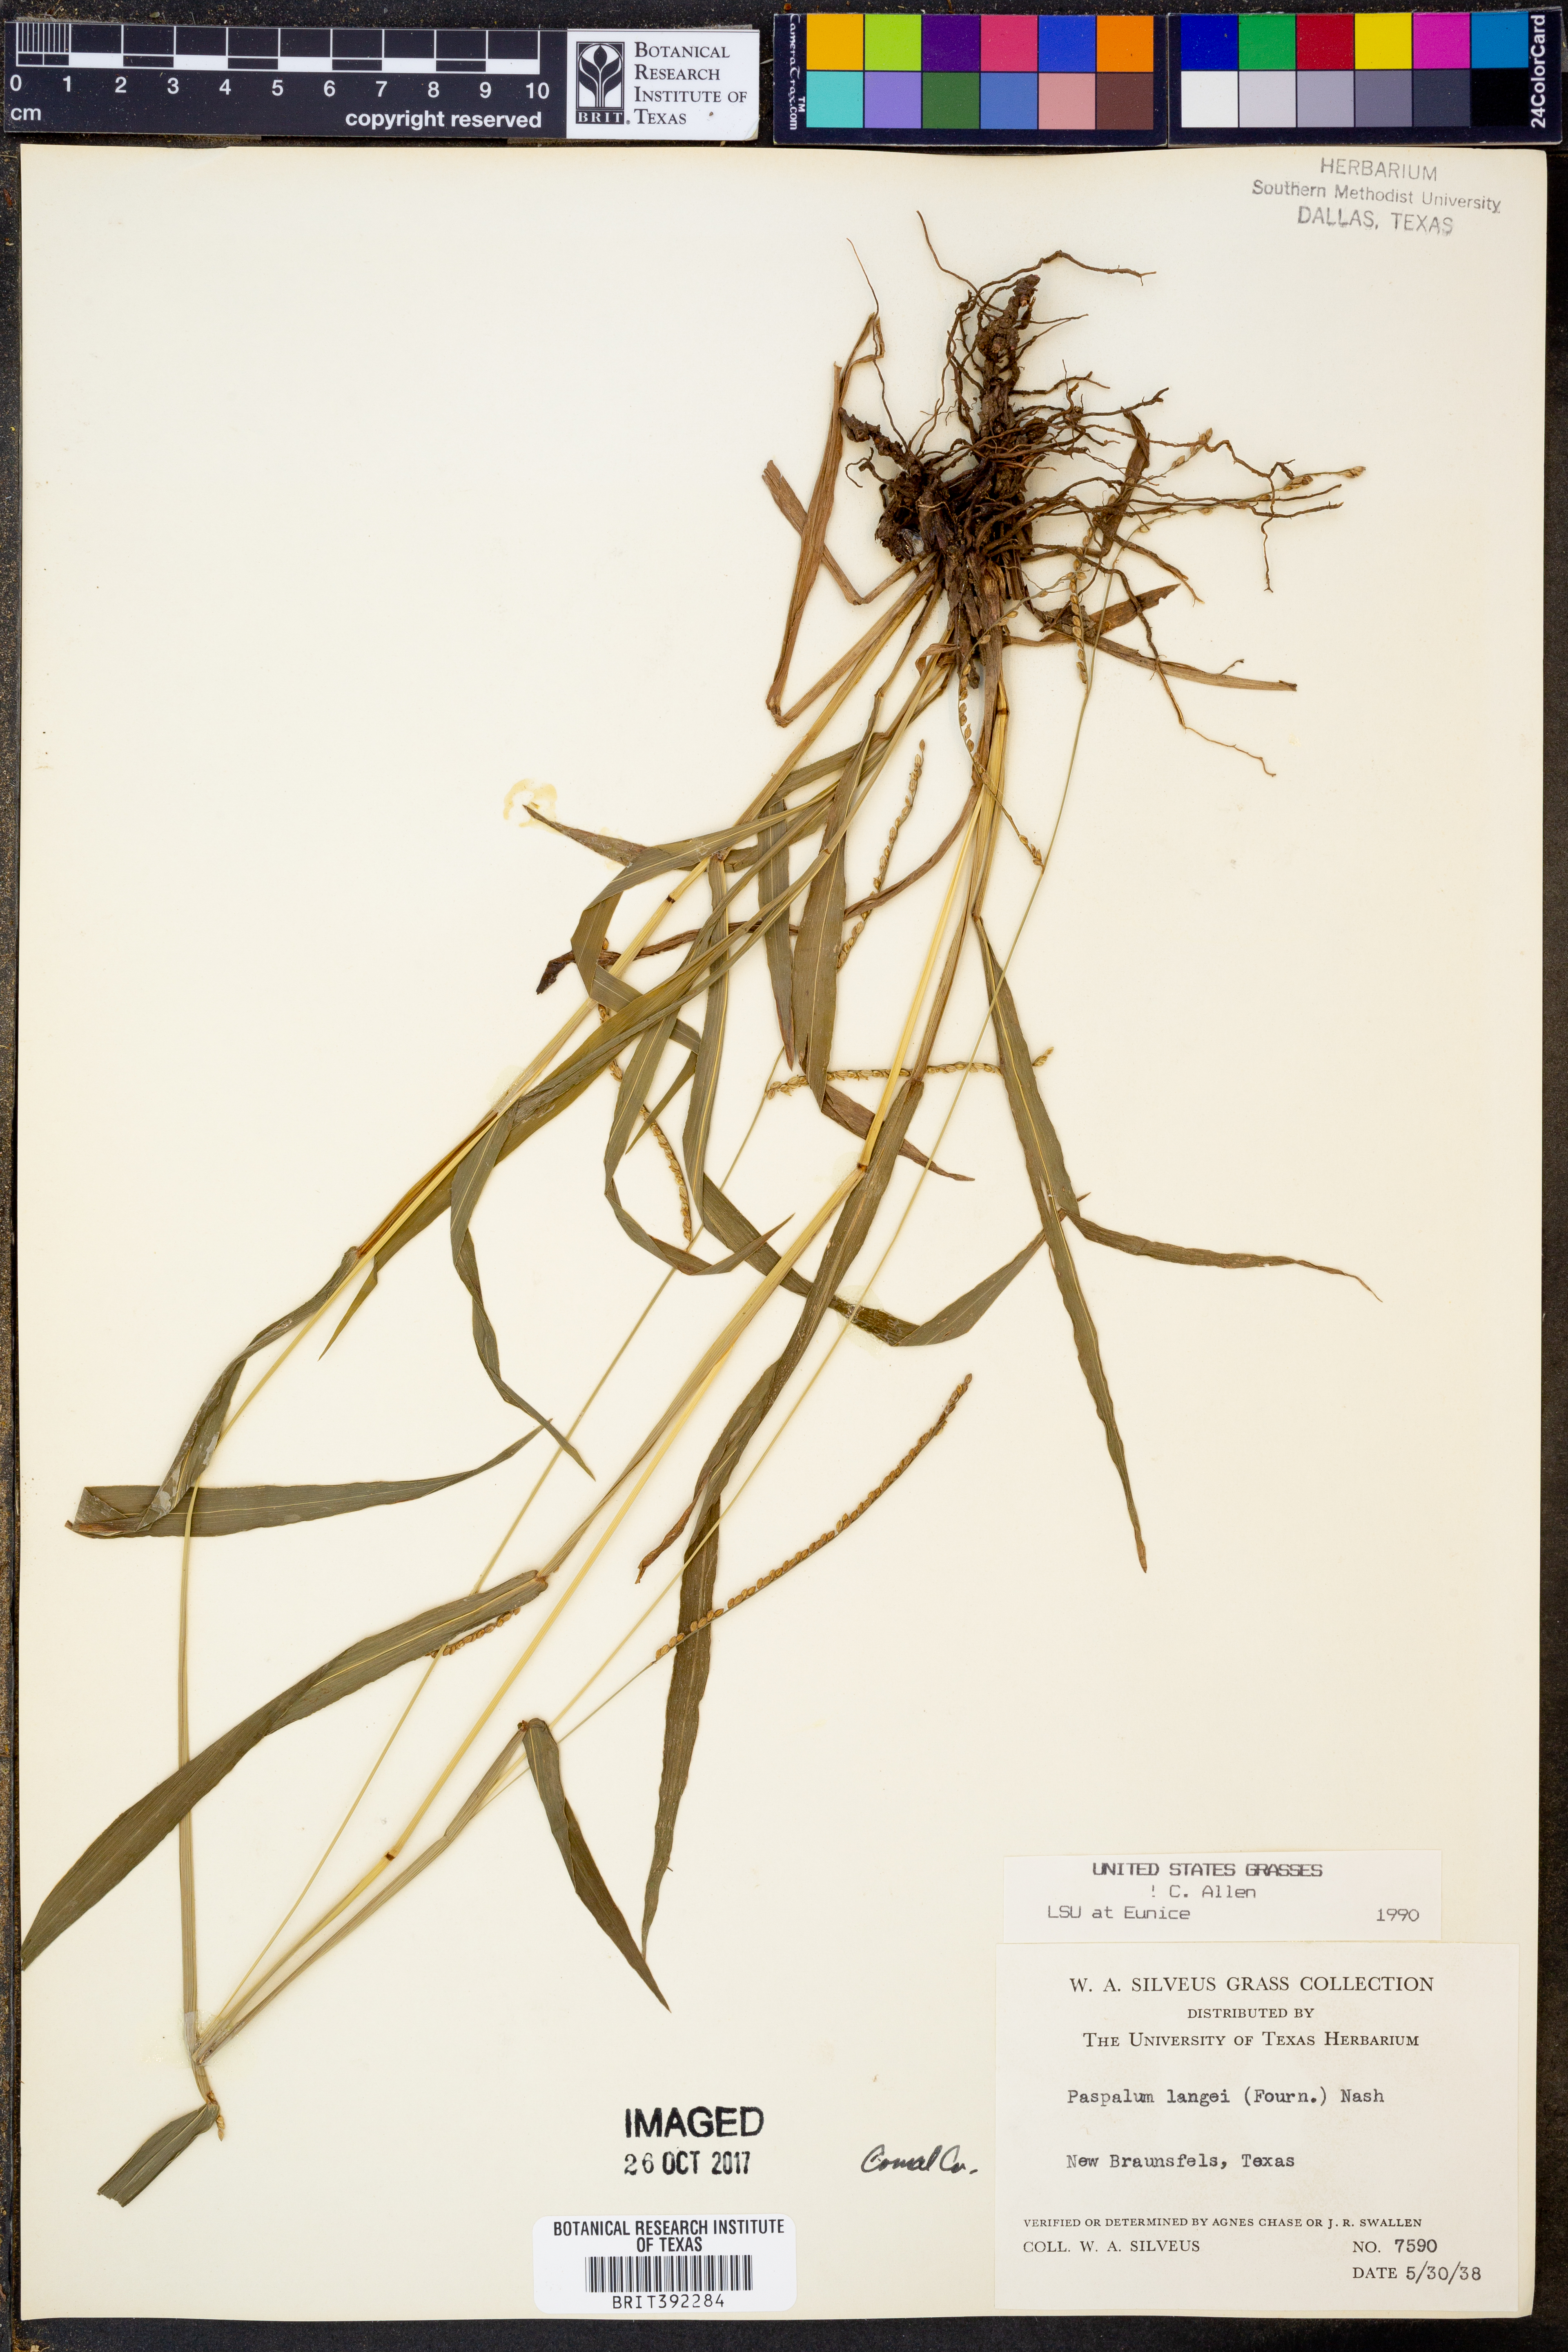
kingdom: Plantae
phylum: Tracheophyta
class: Liliopsida
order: Poales
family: Poaceae
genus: Paspalum
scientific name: Paspalum langei
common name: Rusty-seed paspalum
